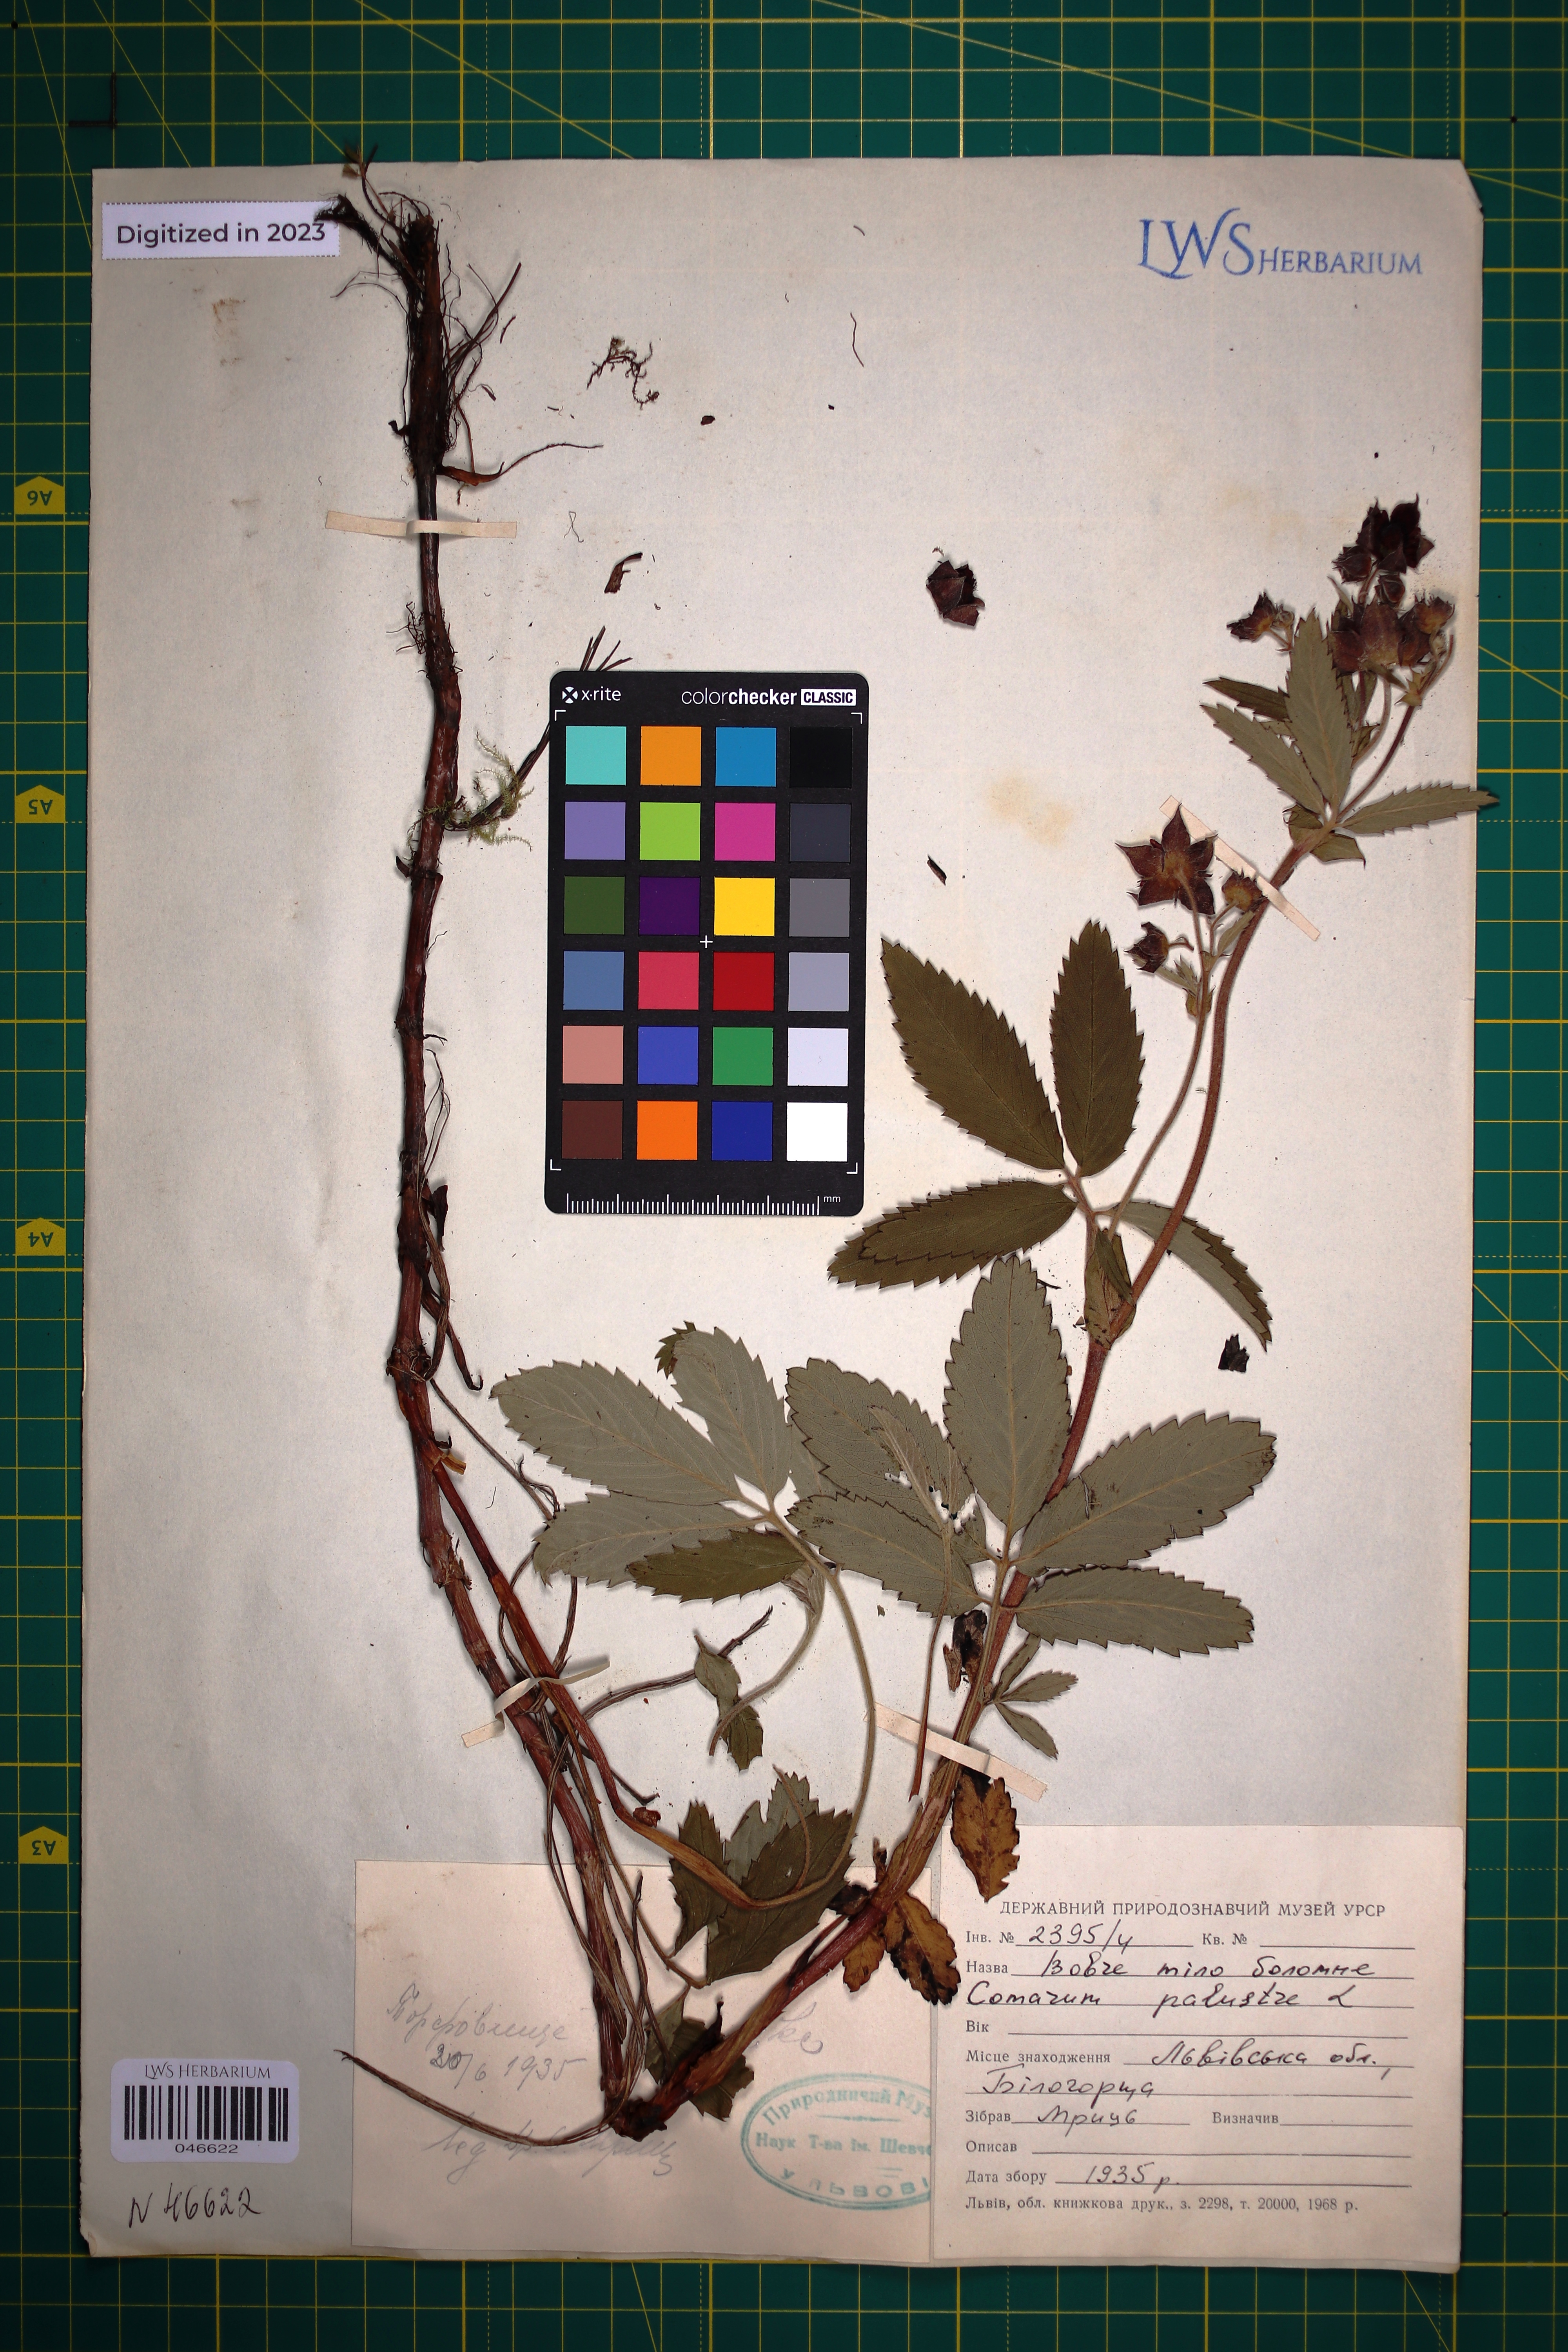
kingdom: Plantae
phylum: Tracheophyta
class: Magnoliopsida
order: Rosales
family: Rosaceae
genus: Comarum
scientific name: Comarum palustre
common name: Marsh cinquefoil
